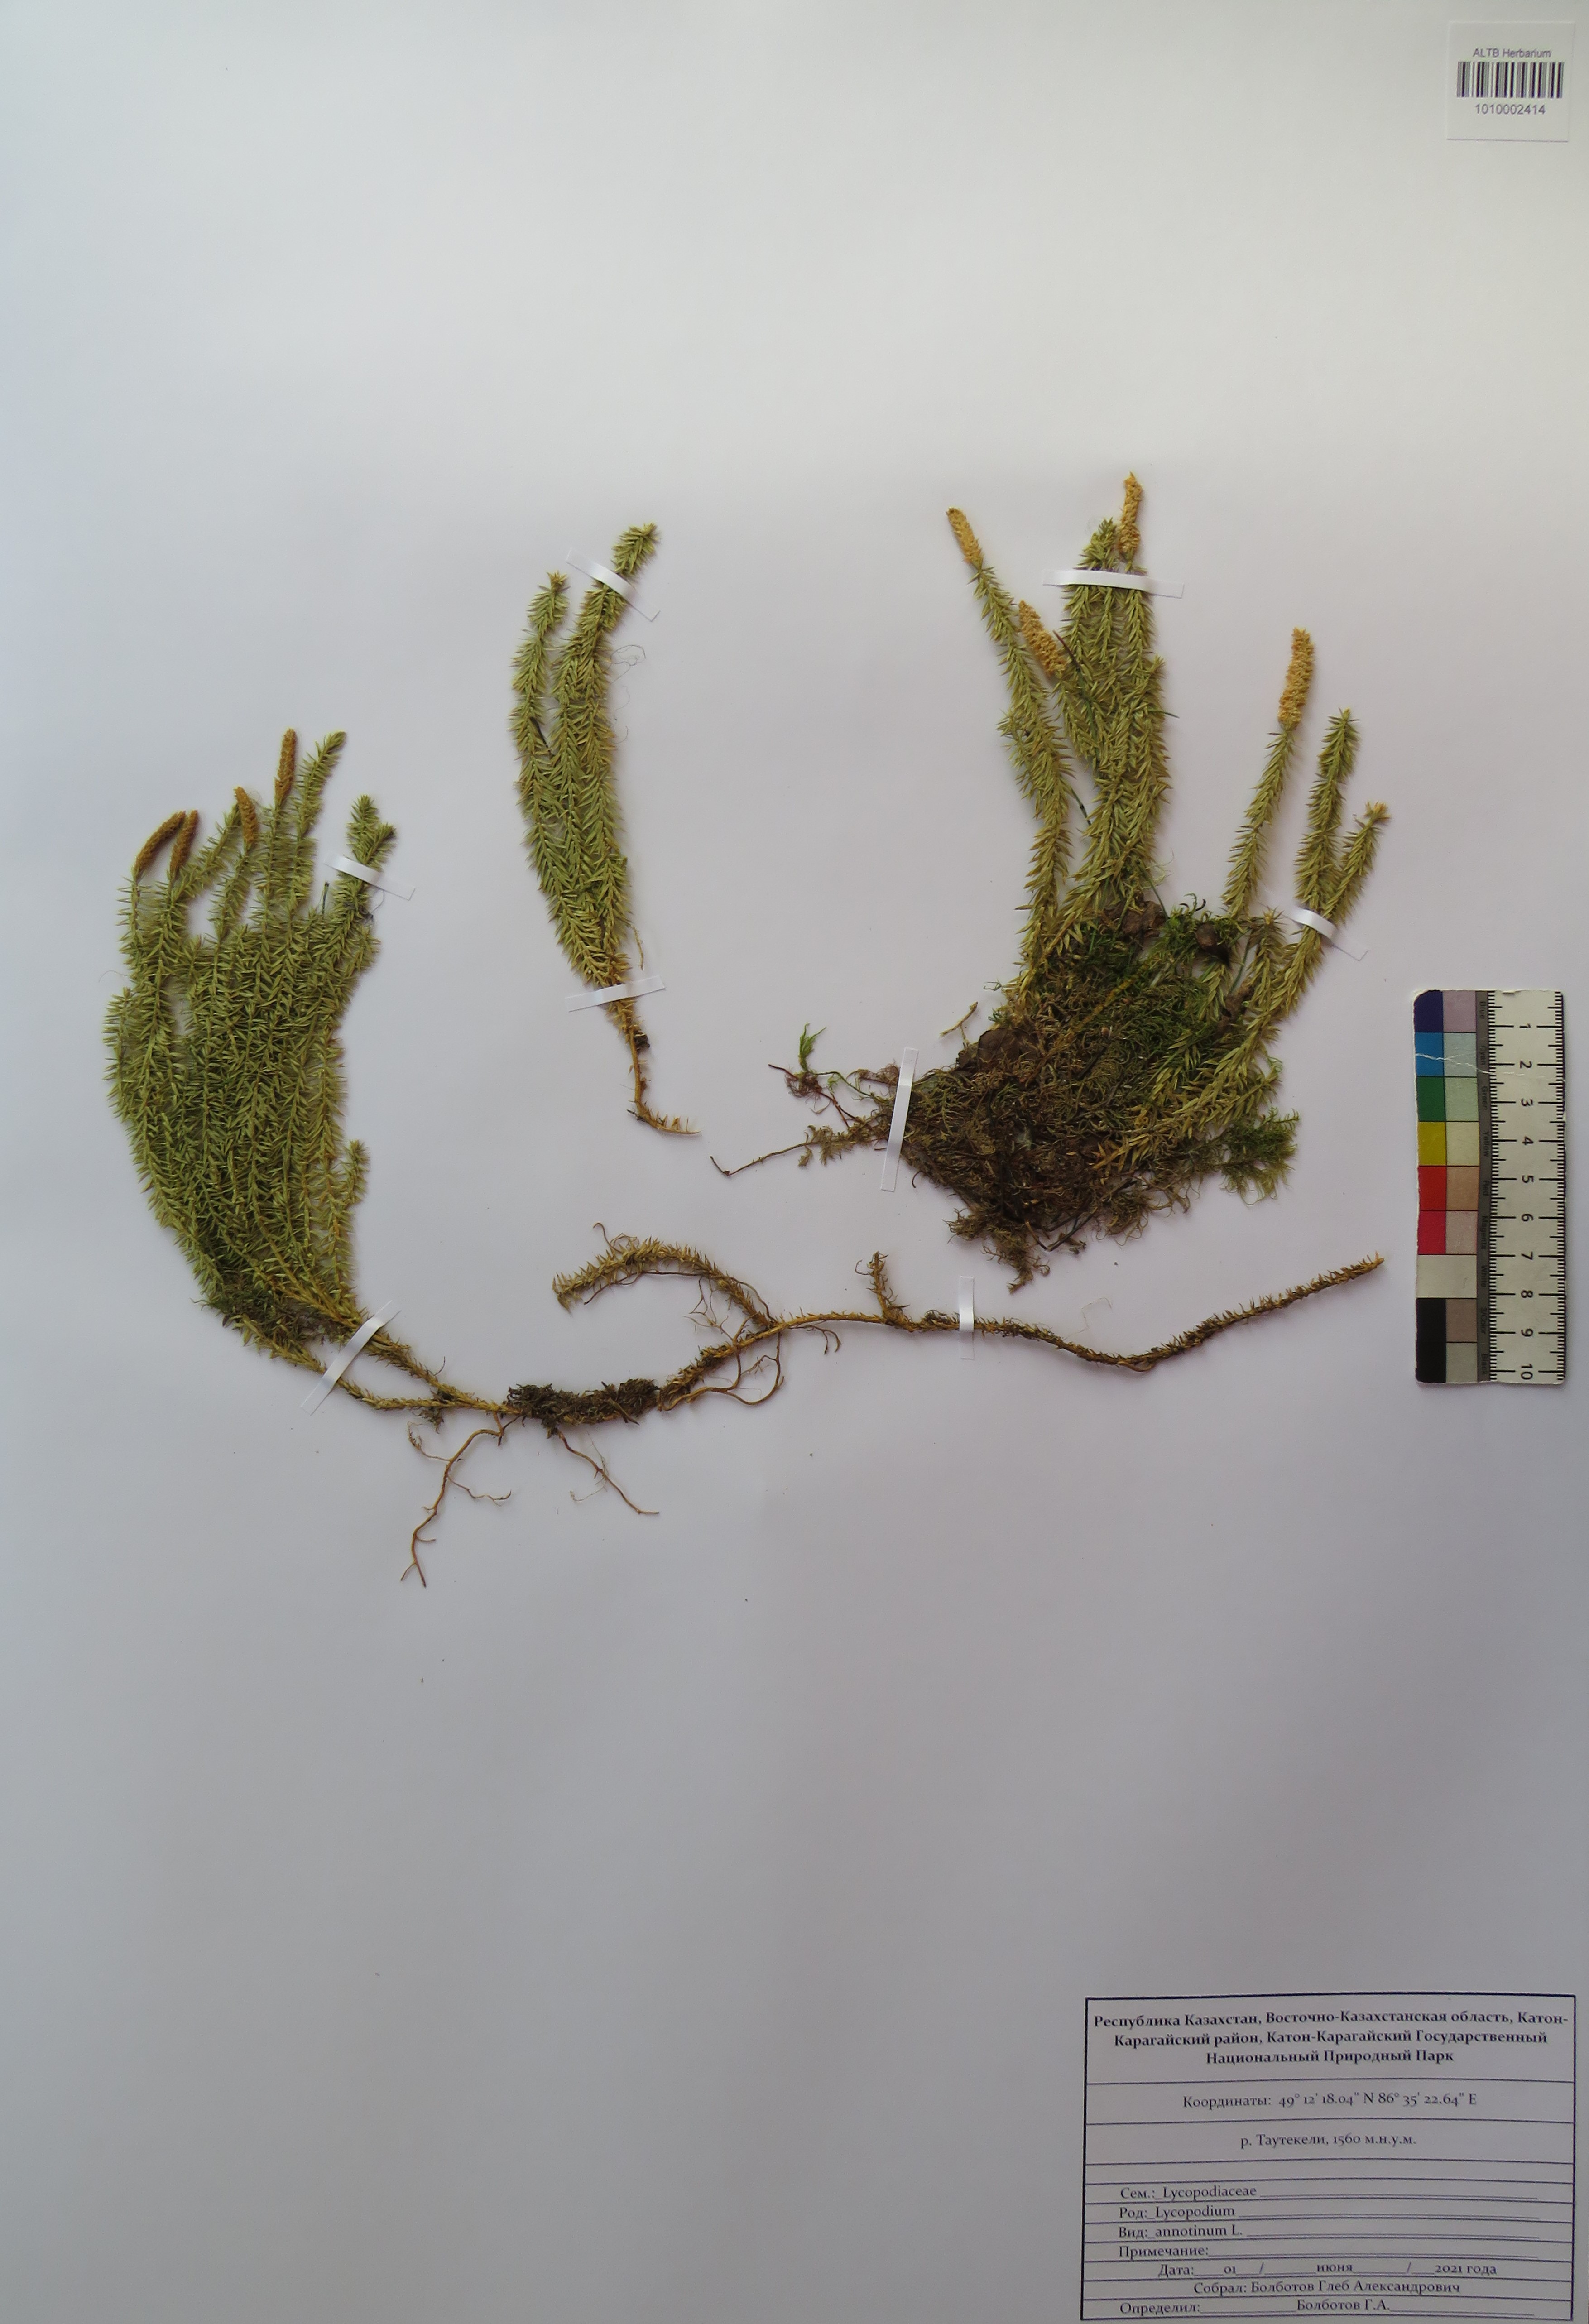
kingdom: Plantae
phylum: Tracheophyta
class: Lycopodiopsida
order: Lycopodiales
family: Lycopodiaceae
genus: Spinulum
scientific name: Spinulum annotinum
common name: Interrupted club-moss
